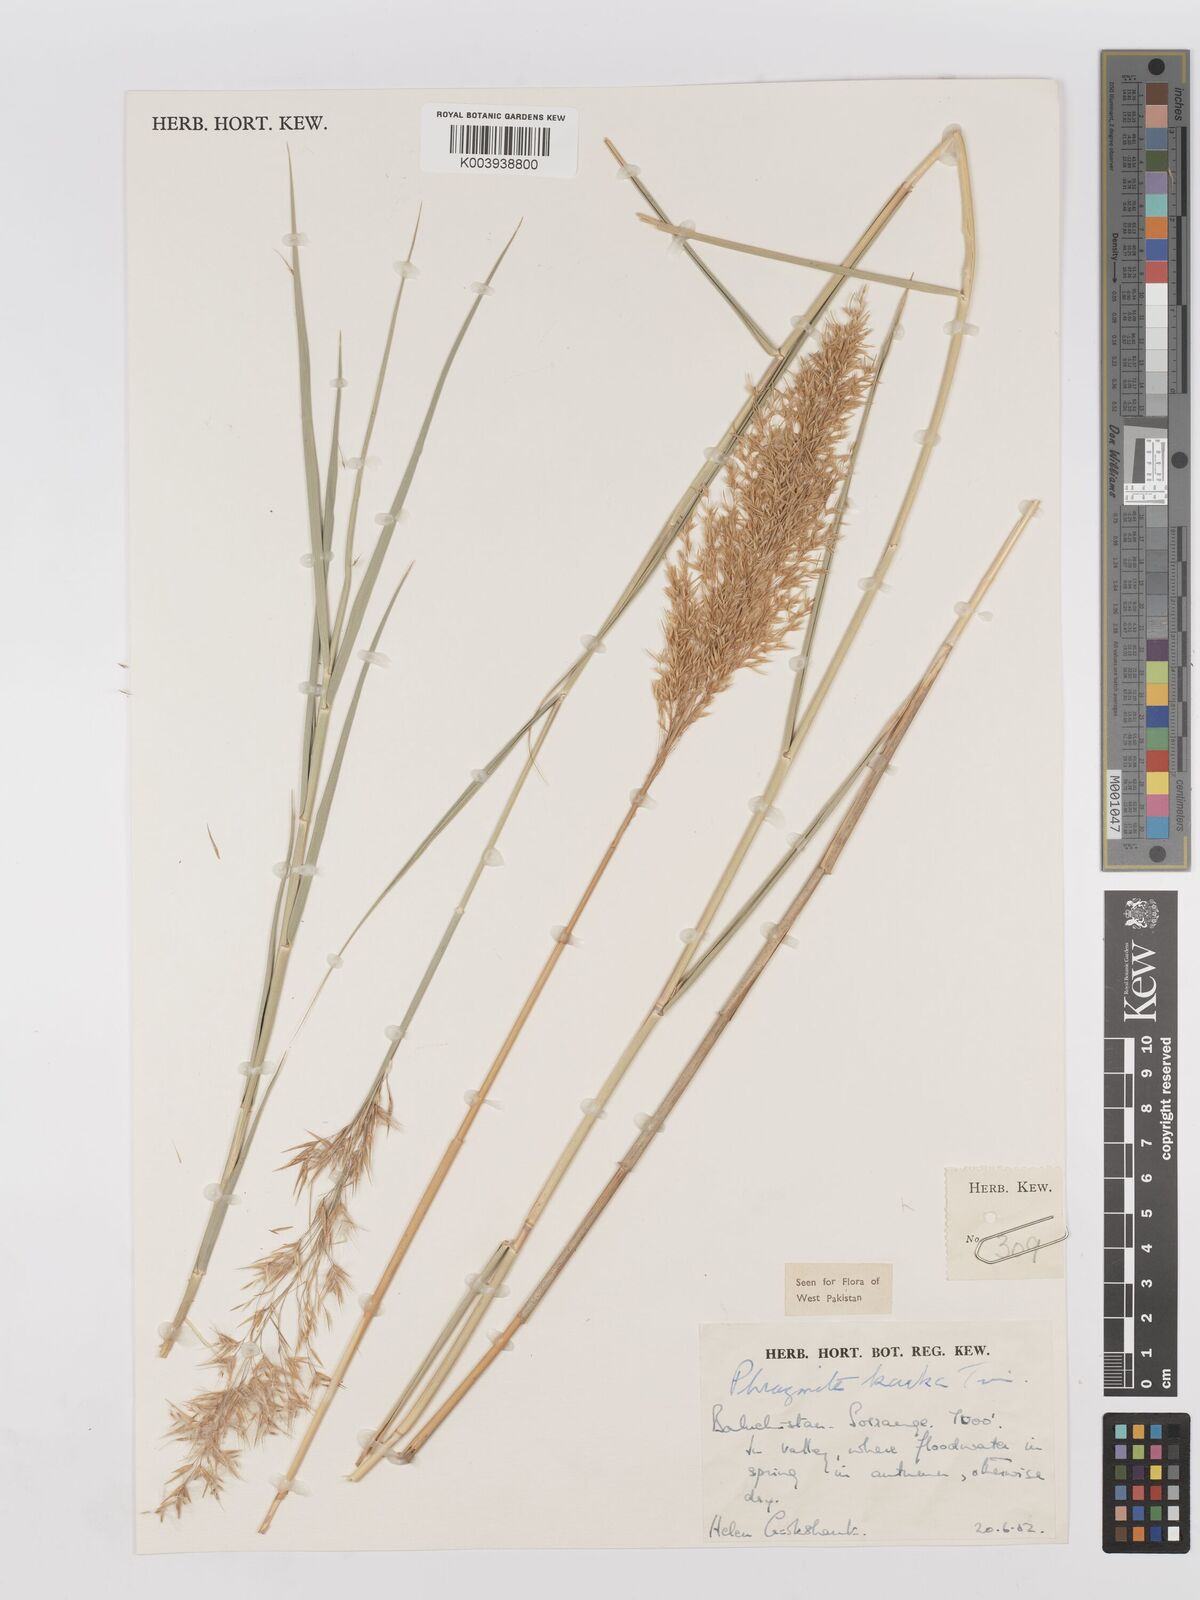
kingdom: Plantae
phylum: Tracheophyta
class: Liliopsida
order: Poales
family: Poaceae
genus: Phragmites
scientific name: Phragmites karka
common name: Tropical reed
